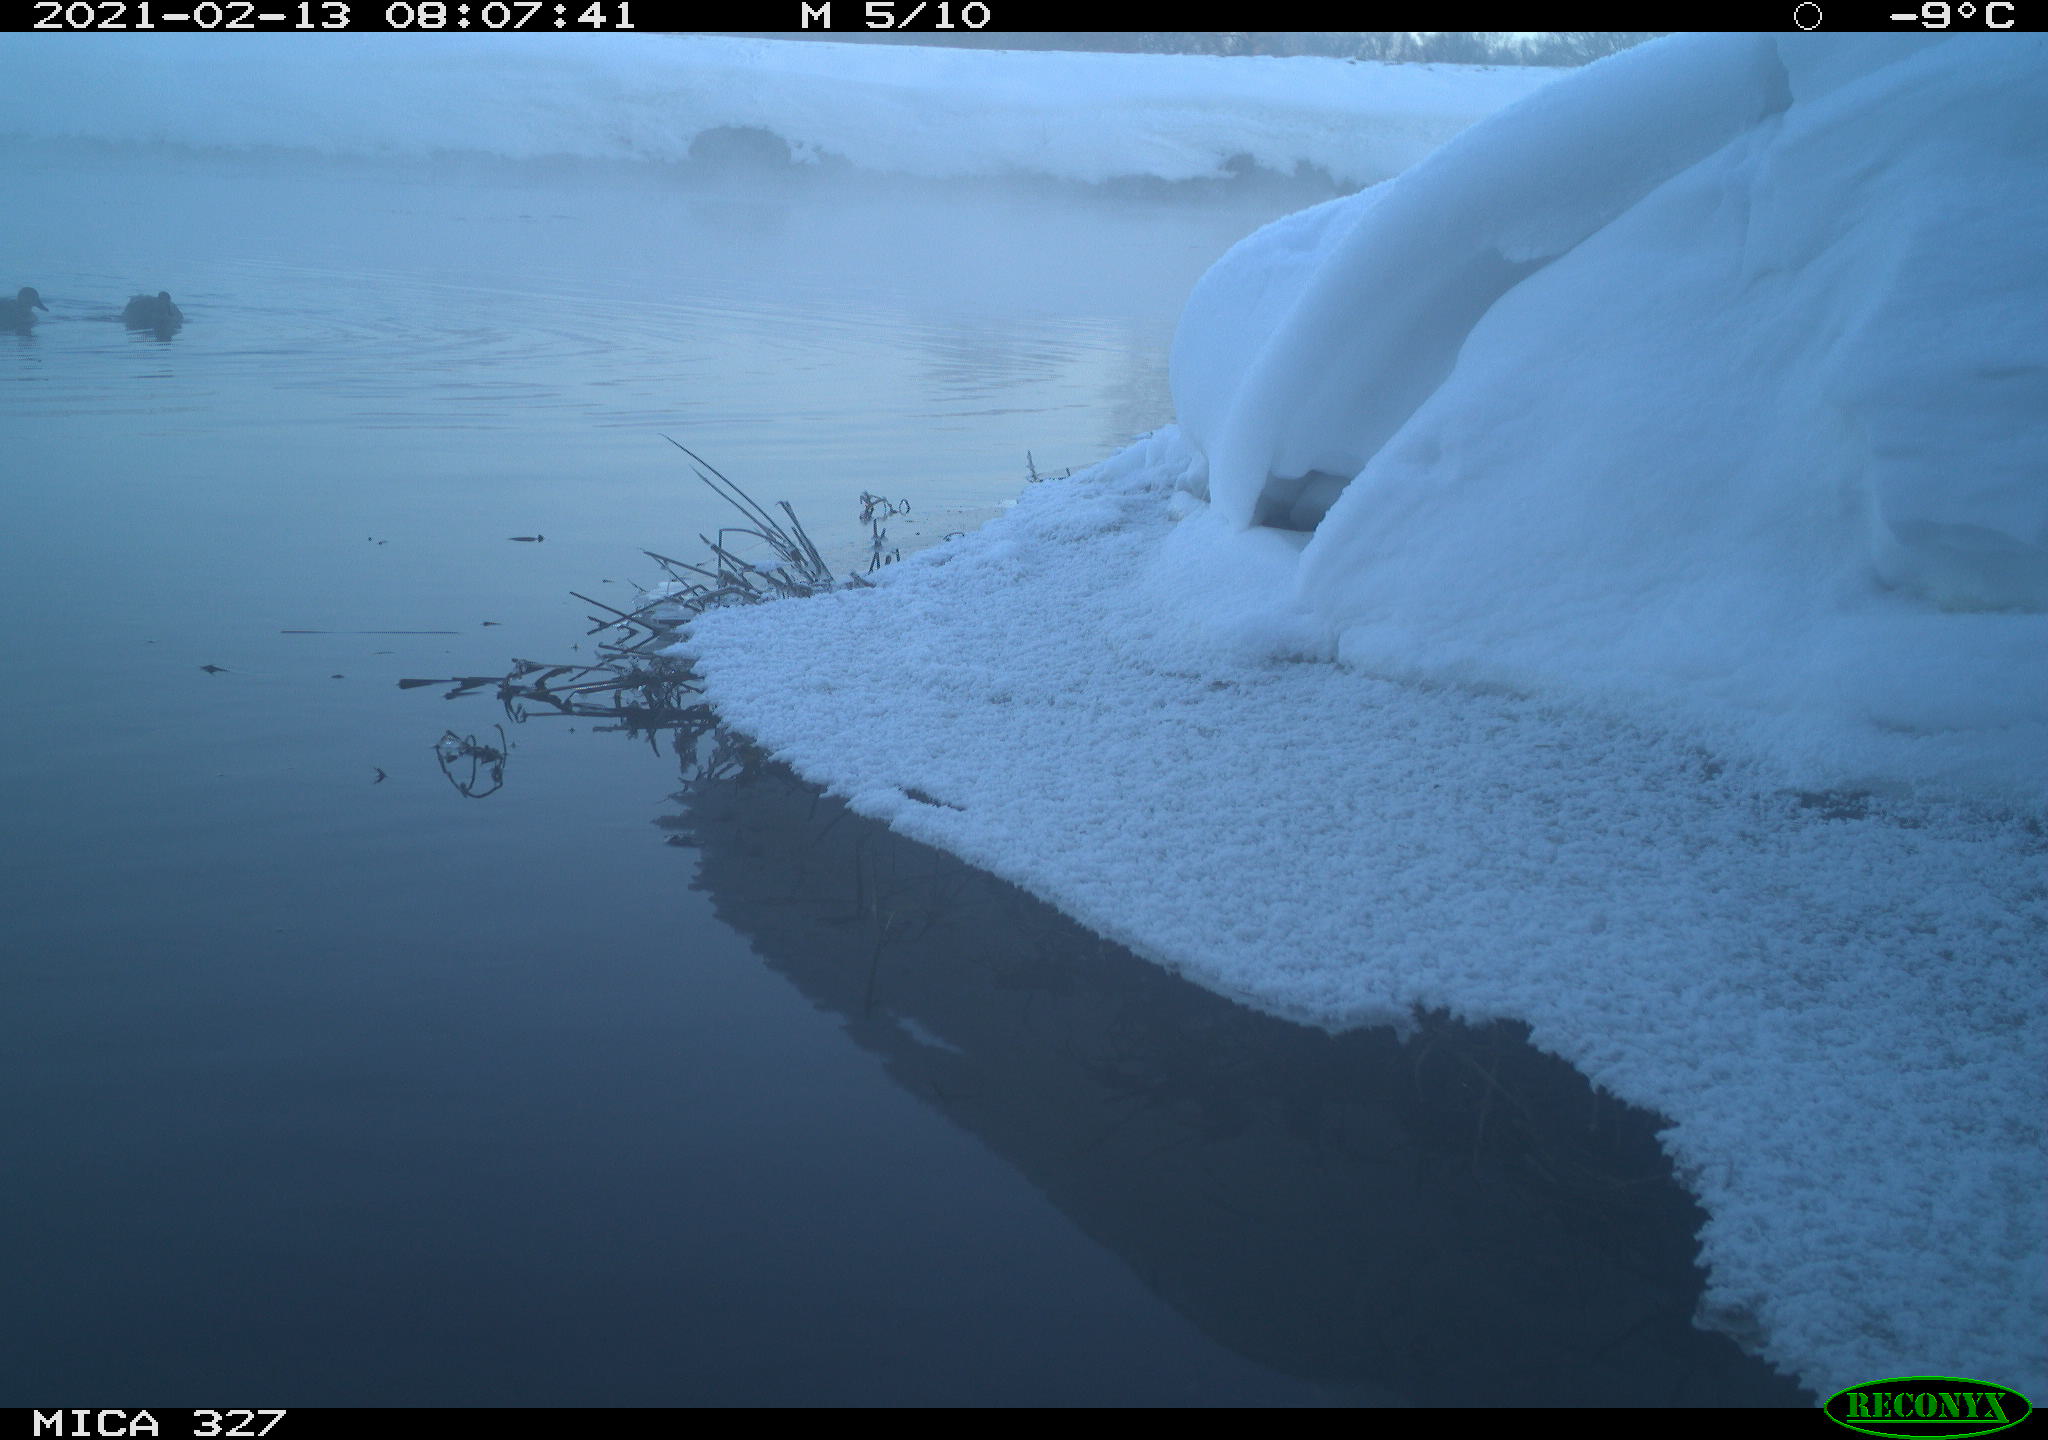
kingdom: Animalia
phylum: Chordata
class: Aves
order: Suliformes
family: Phalacrocoracidae
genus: Phalacrocorax
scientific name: Phalacrocorax carbo
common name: Great cormorant
